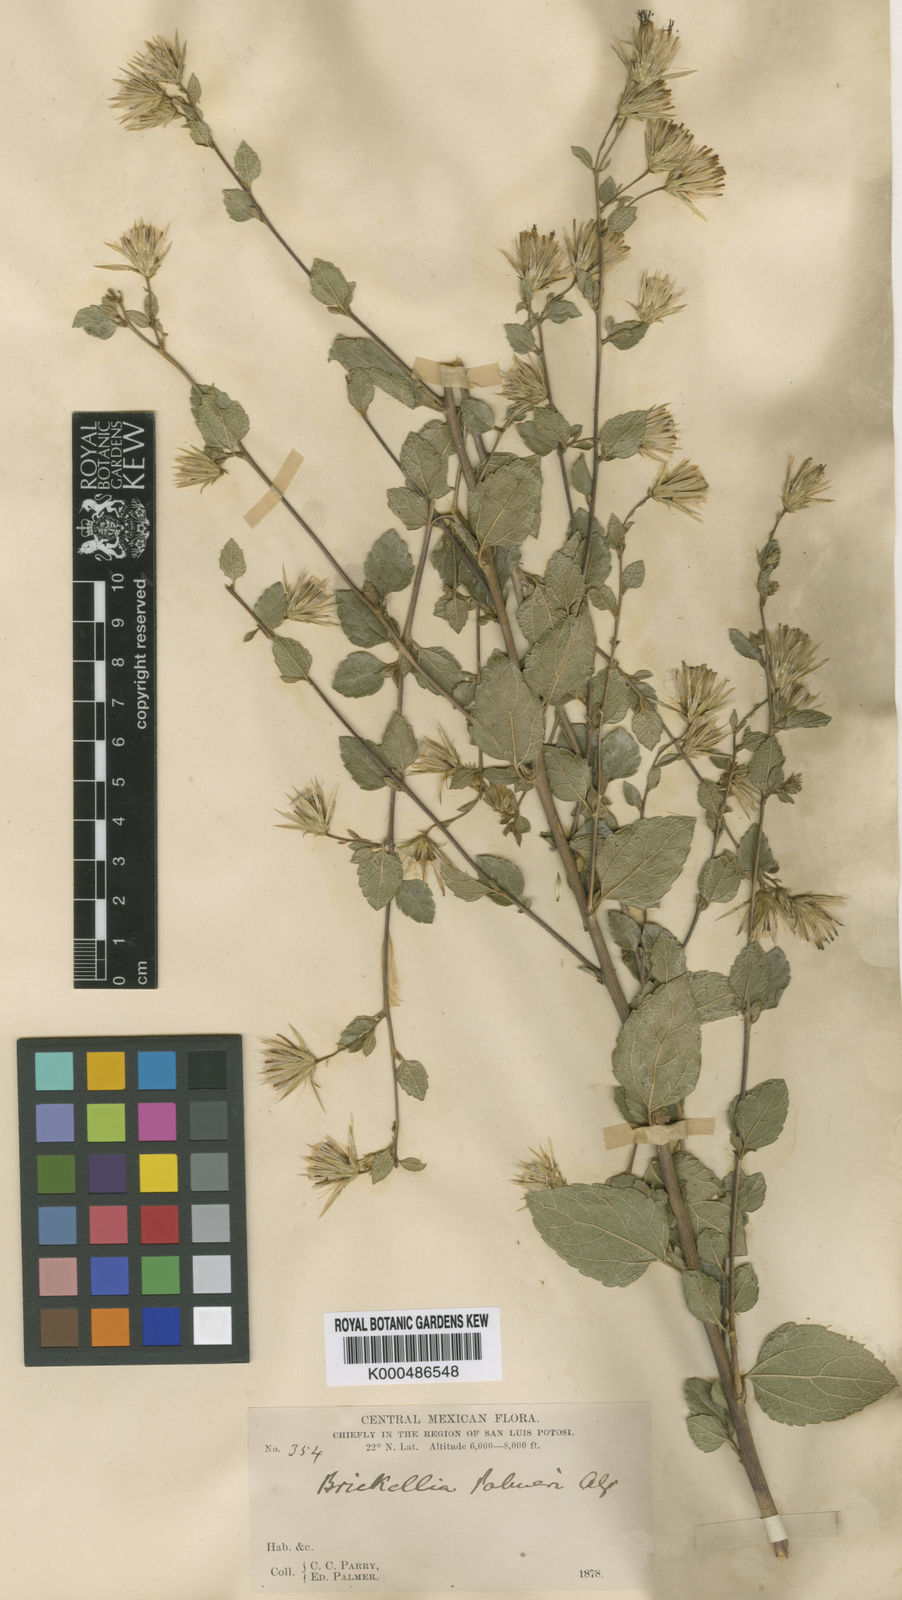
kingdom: Plantae
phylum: Tracheophyta
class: Magnoliopsida
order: Asterales
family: Asteraceae
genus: Brickellia
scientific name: Brickellia palmeri
